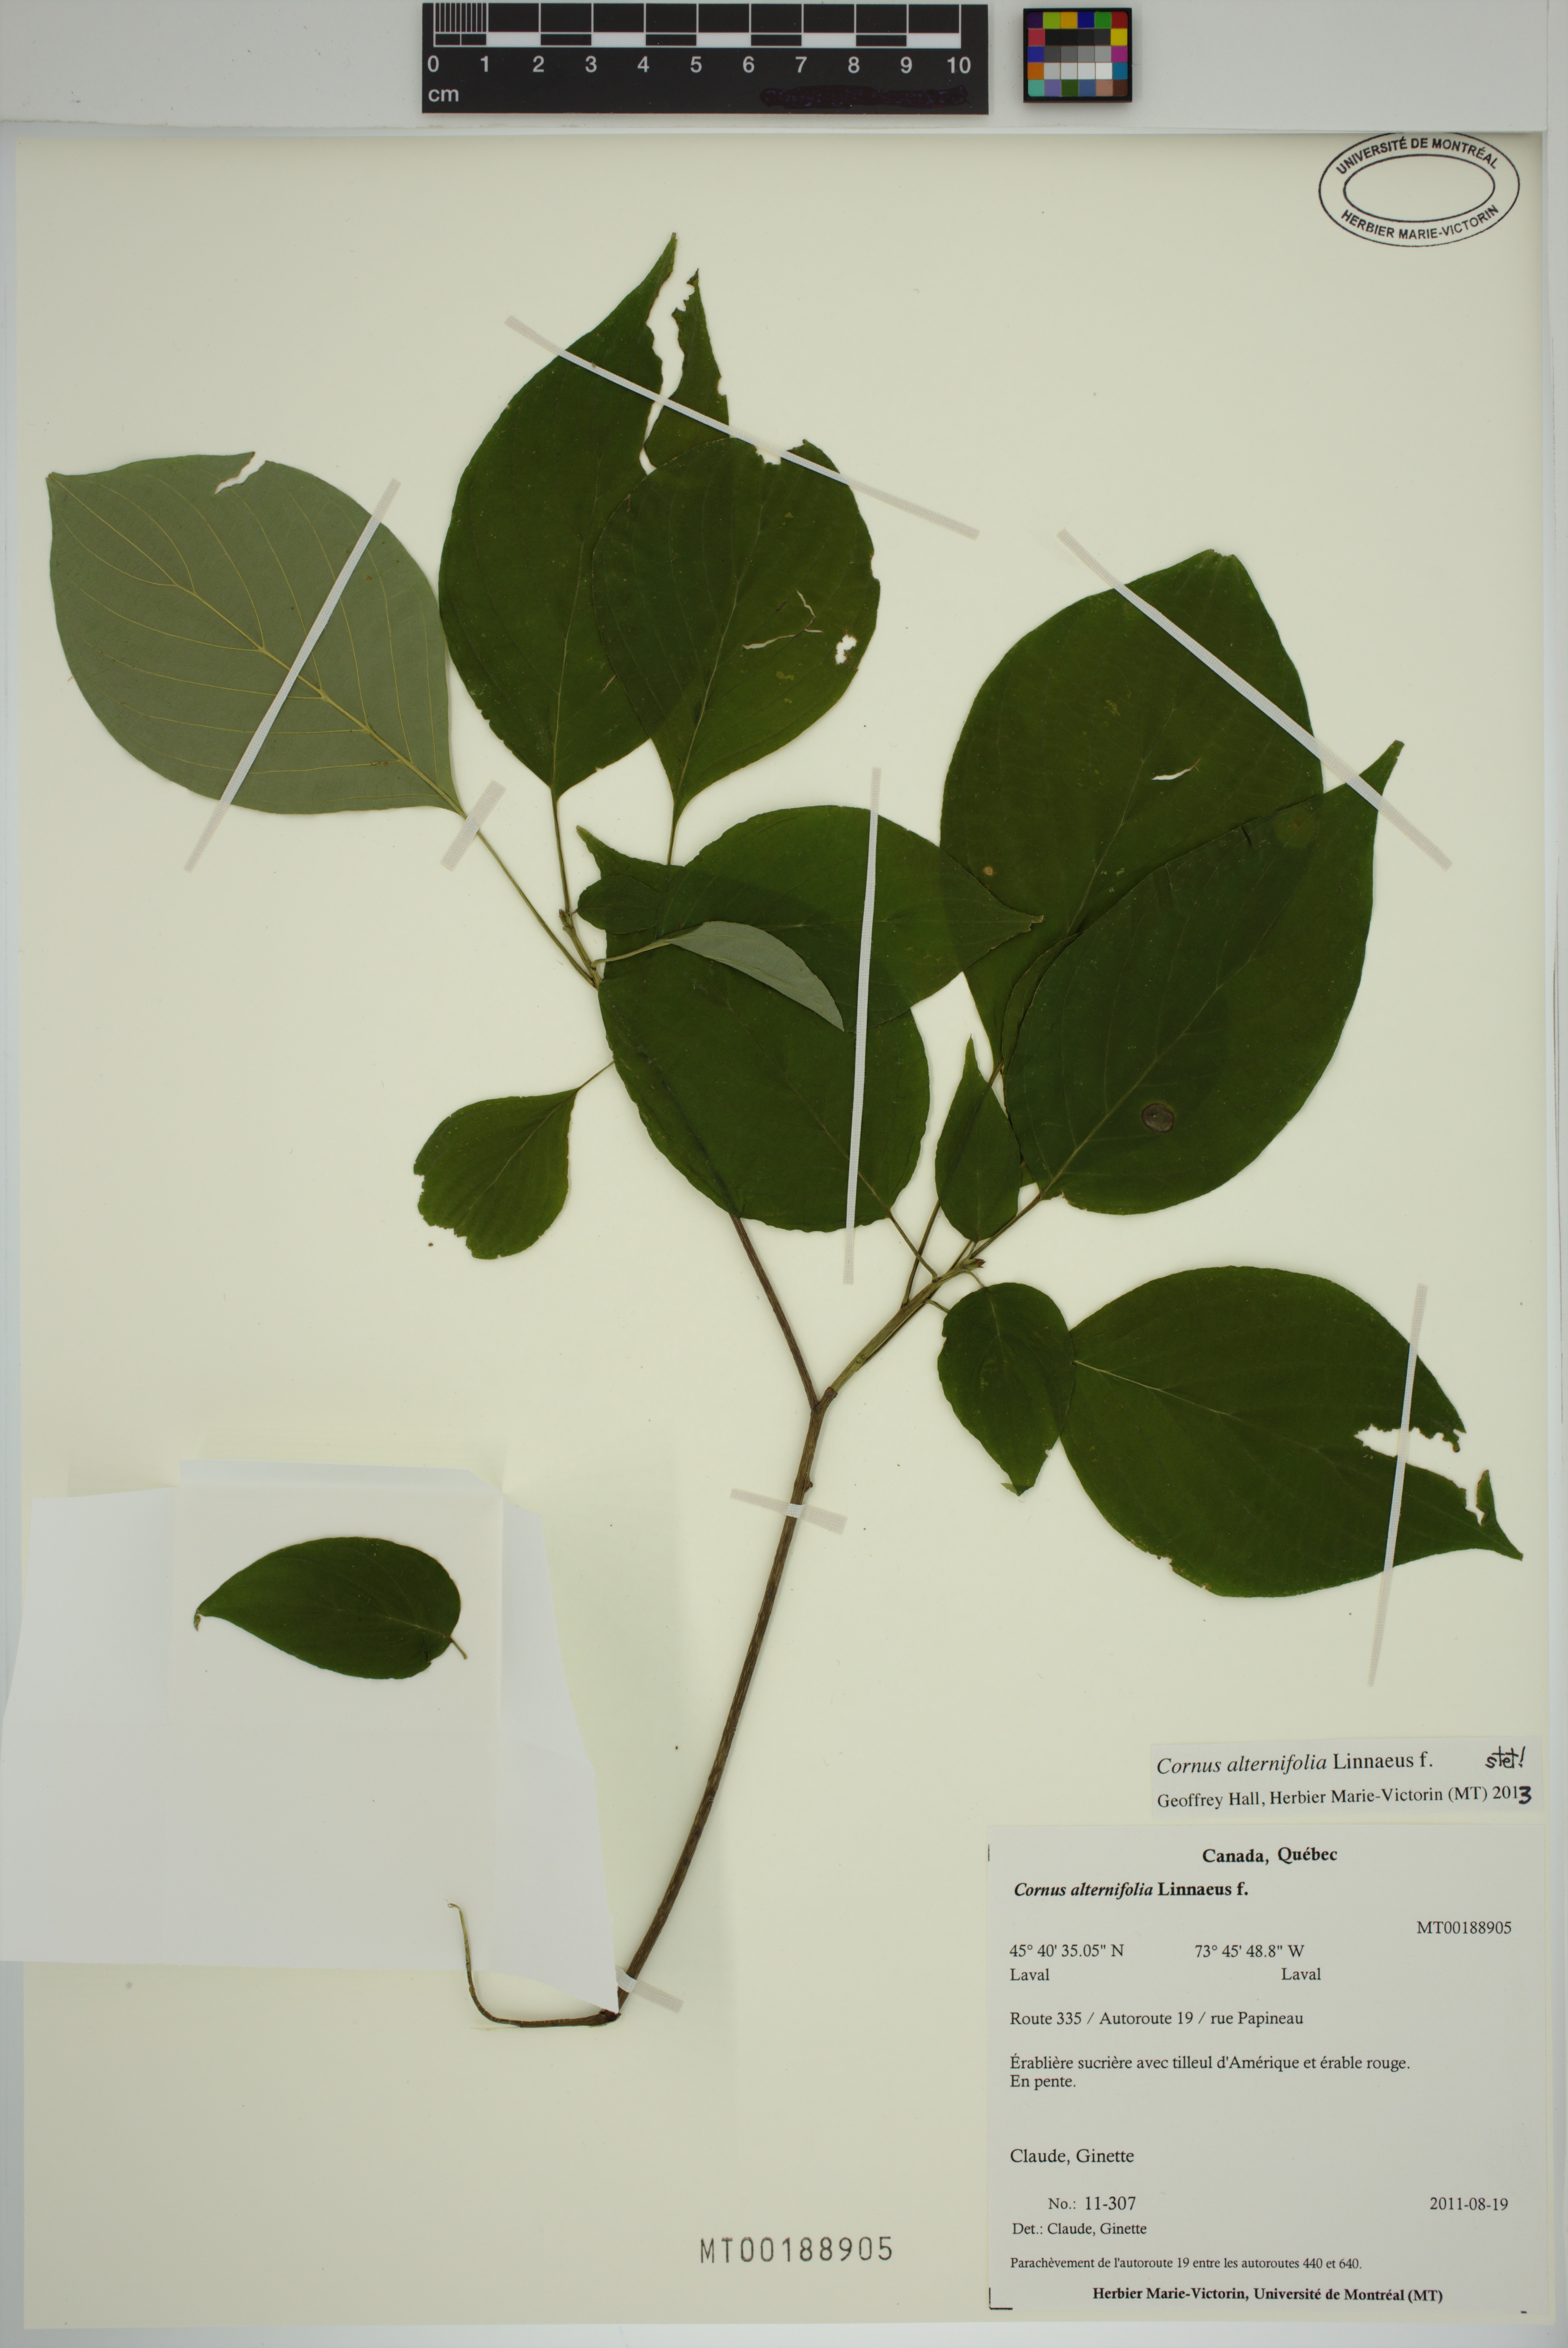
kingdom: Plantae
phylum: Tracheophyta
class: Magnoliopsida
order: Cornales
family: Cornaceae
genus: Cornus
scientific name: Cornus alternifolia
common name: Pagoda dogwood
